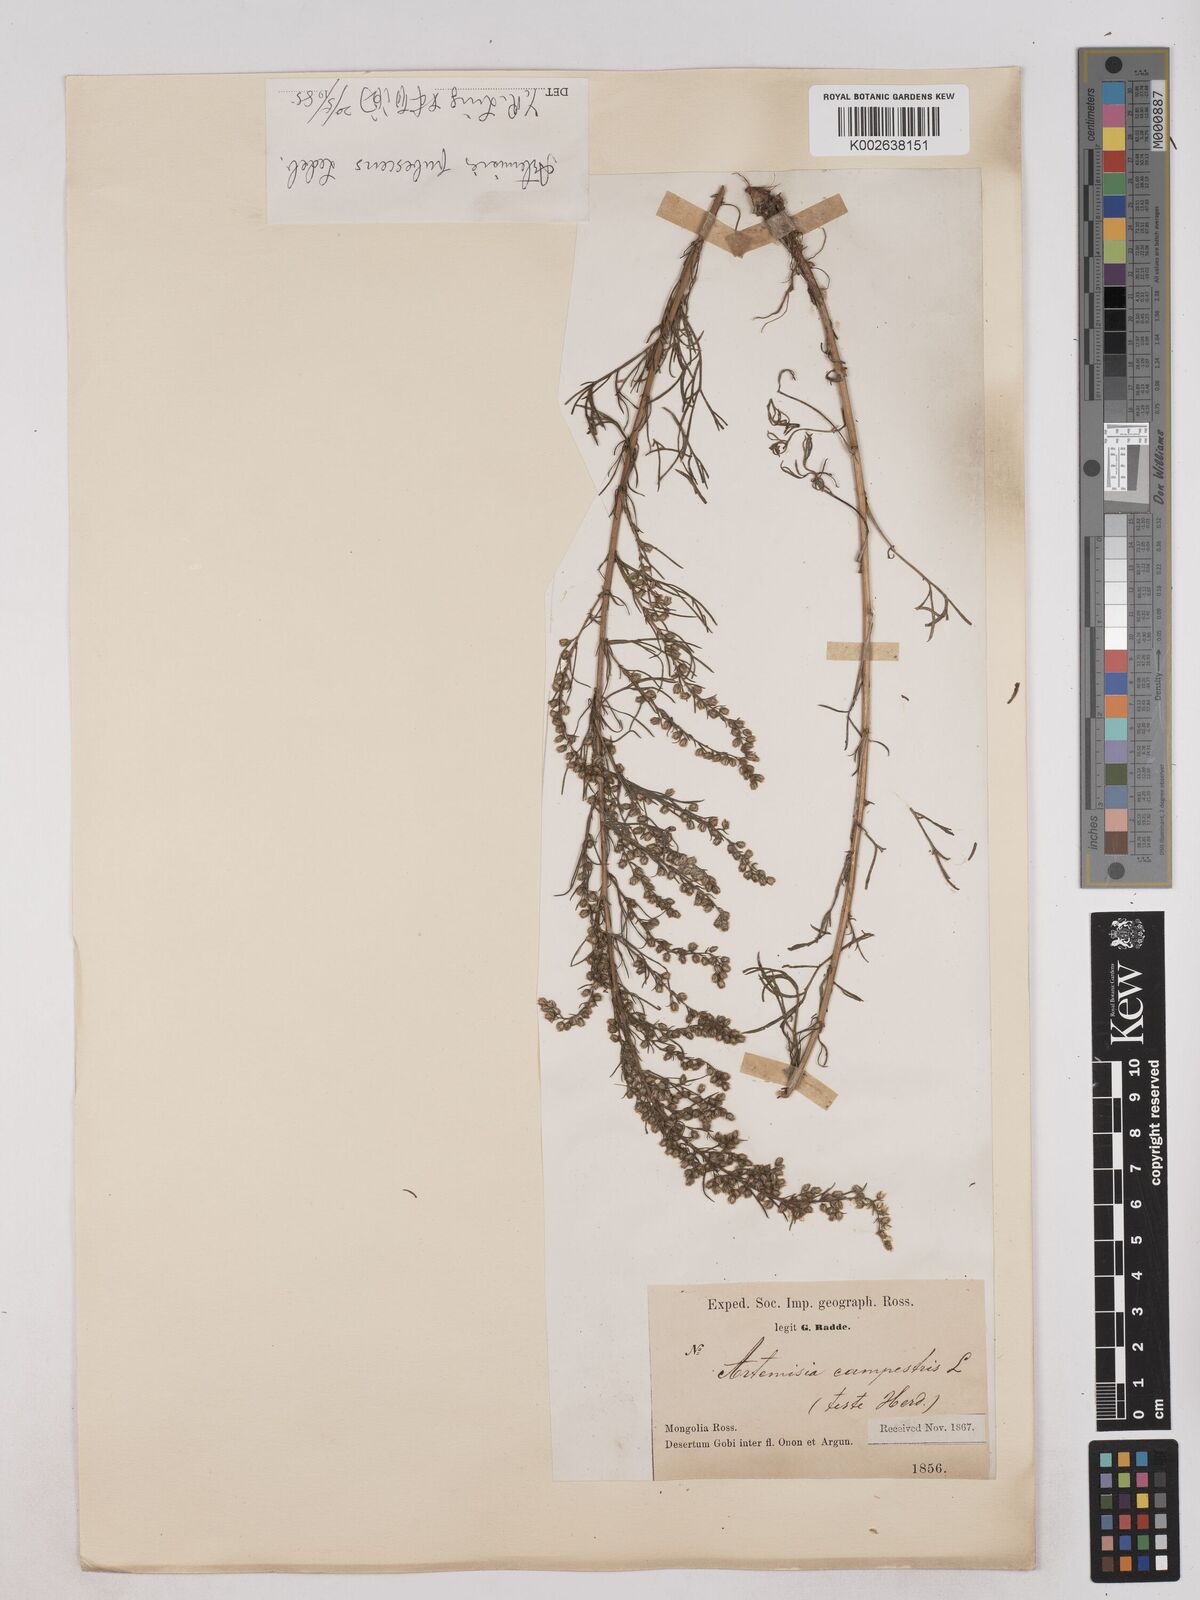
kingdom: Plantae
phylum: Tracheophyta
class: Magnoliopsida
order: Asterales
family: Asteraceae
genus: Artemisia
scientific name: Artemisia pubescens
